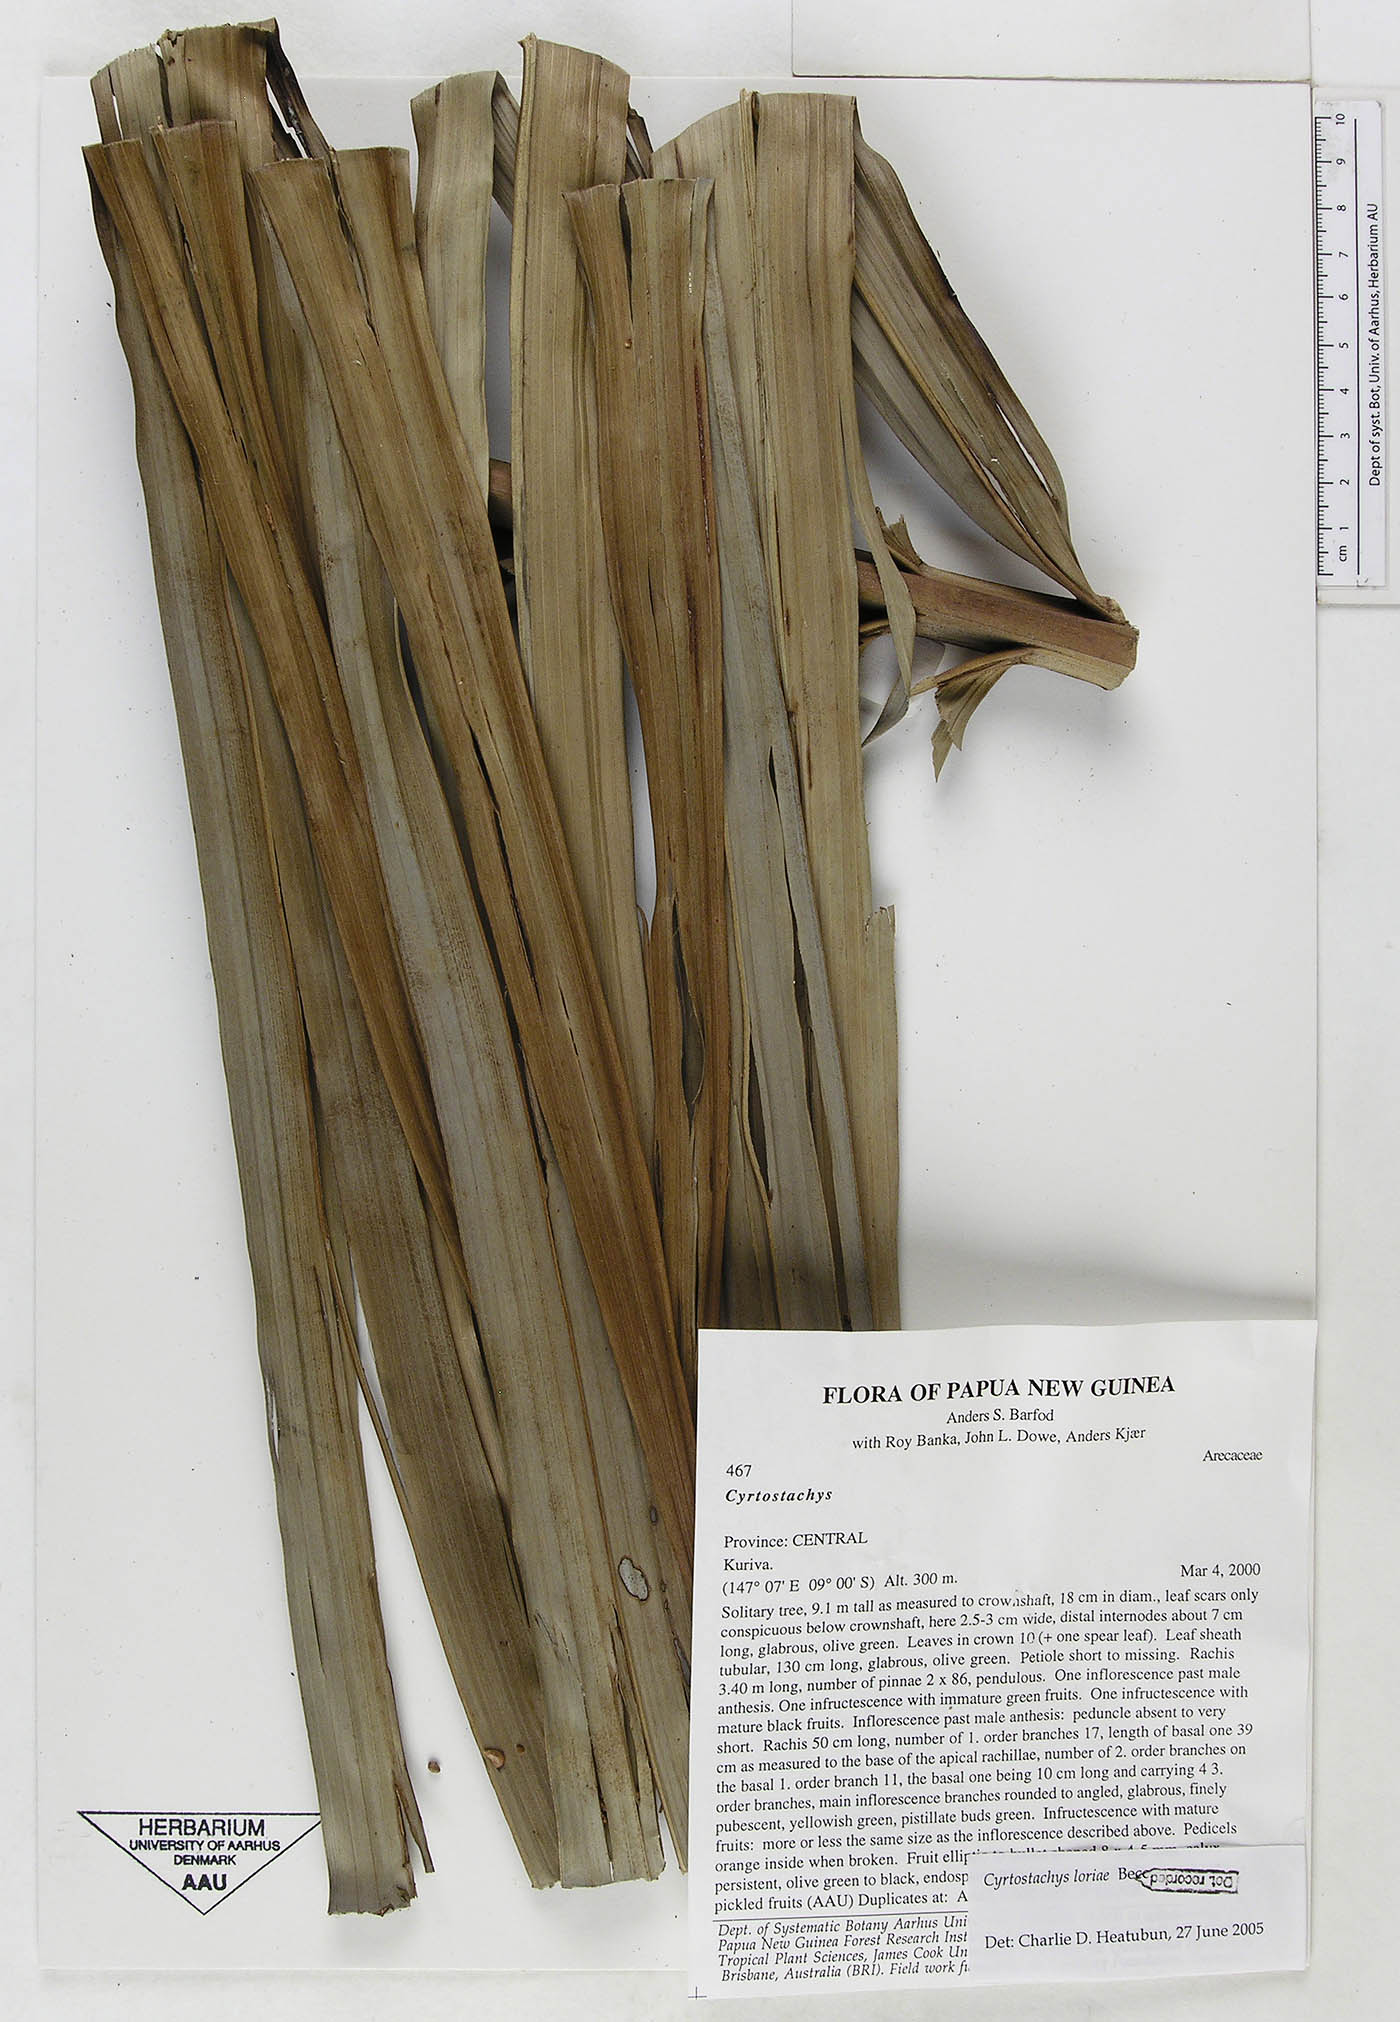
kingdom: Plantae
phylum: Tracheophyta
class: Liliopsida
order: Arecales
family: Arecaceae
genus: Cyrtostachys
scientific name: Cyrtostachys loriae
